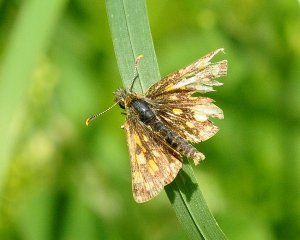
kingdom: Animalia
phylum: Arthropoda
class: Insecta
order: Lepidoptera
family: Hesperiidae
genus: Carterocephalus
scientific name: Carterocephalus
